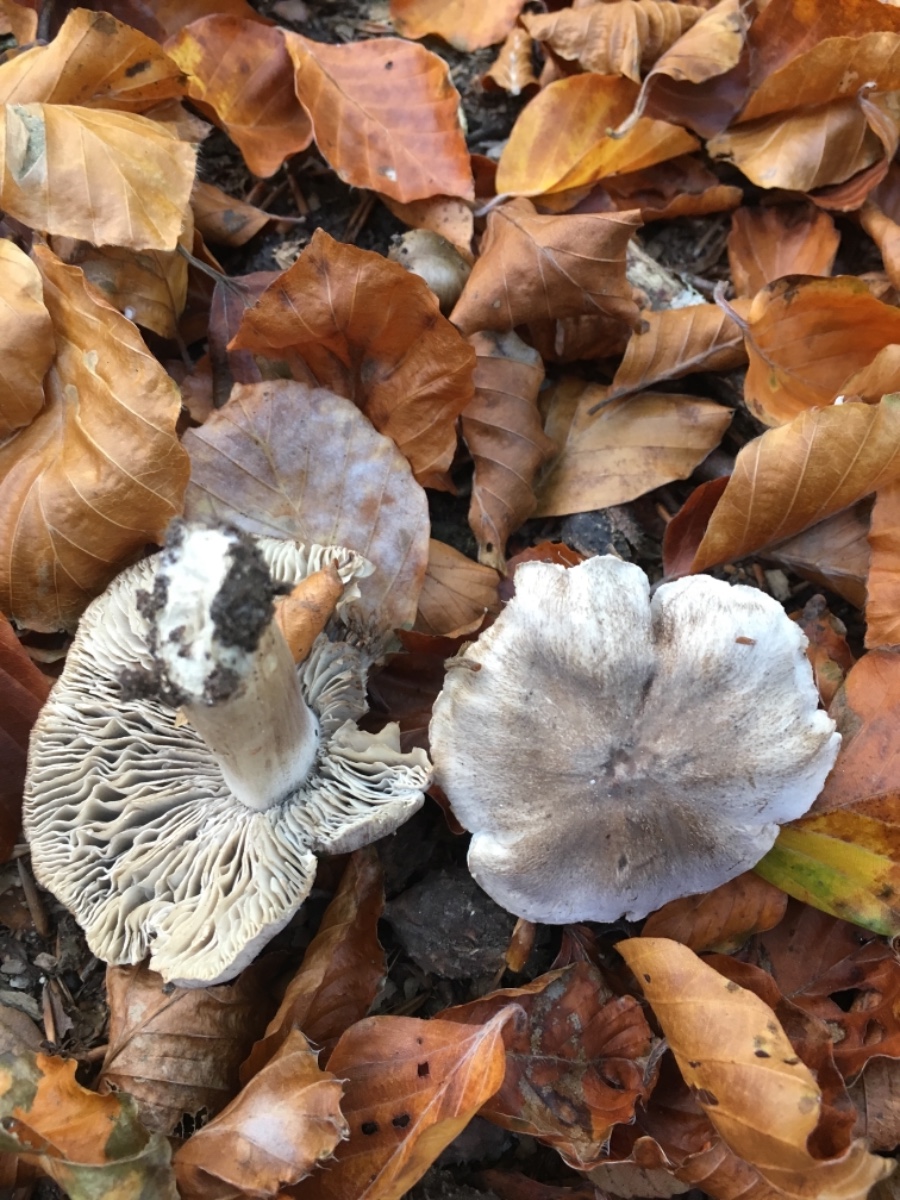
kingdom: Fungi
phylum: Basidiomycota
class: Agaricomycetes
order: Agaricales
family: Tricholomataceae
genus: Tricholoma
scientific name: Tricholoma sciodes
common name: stribet ridderhat
